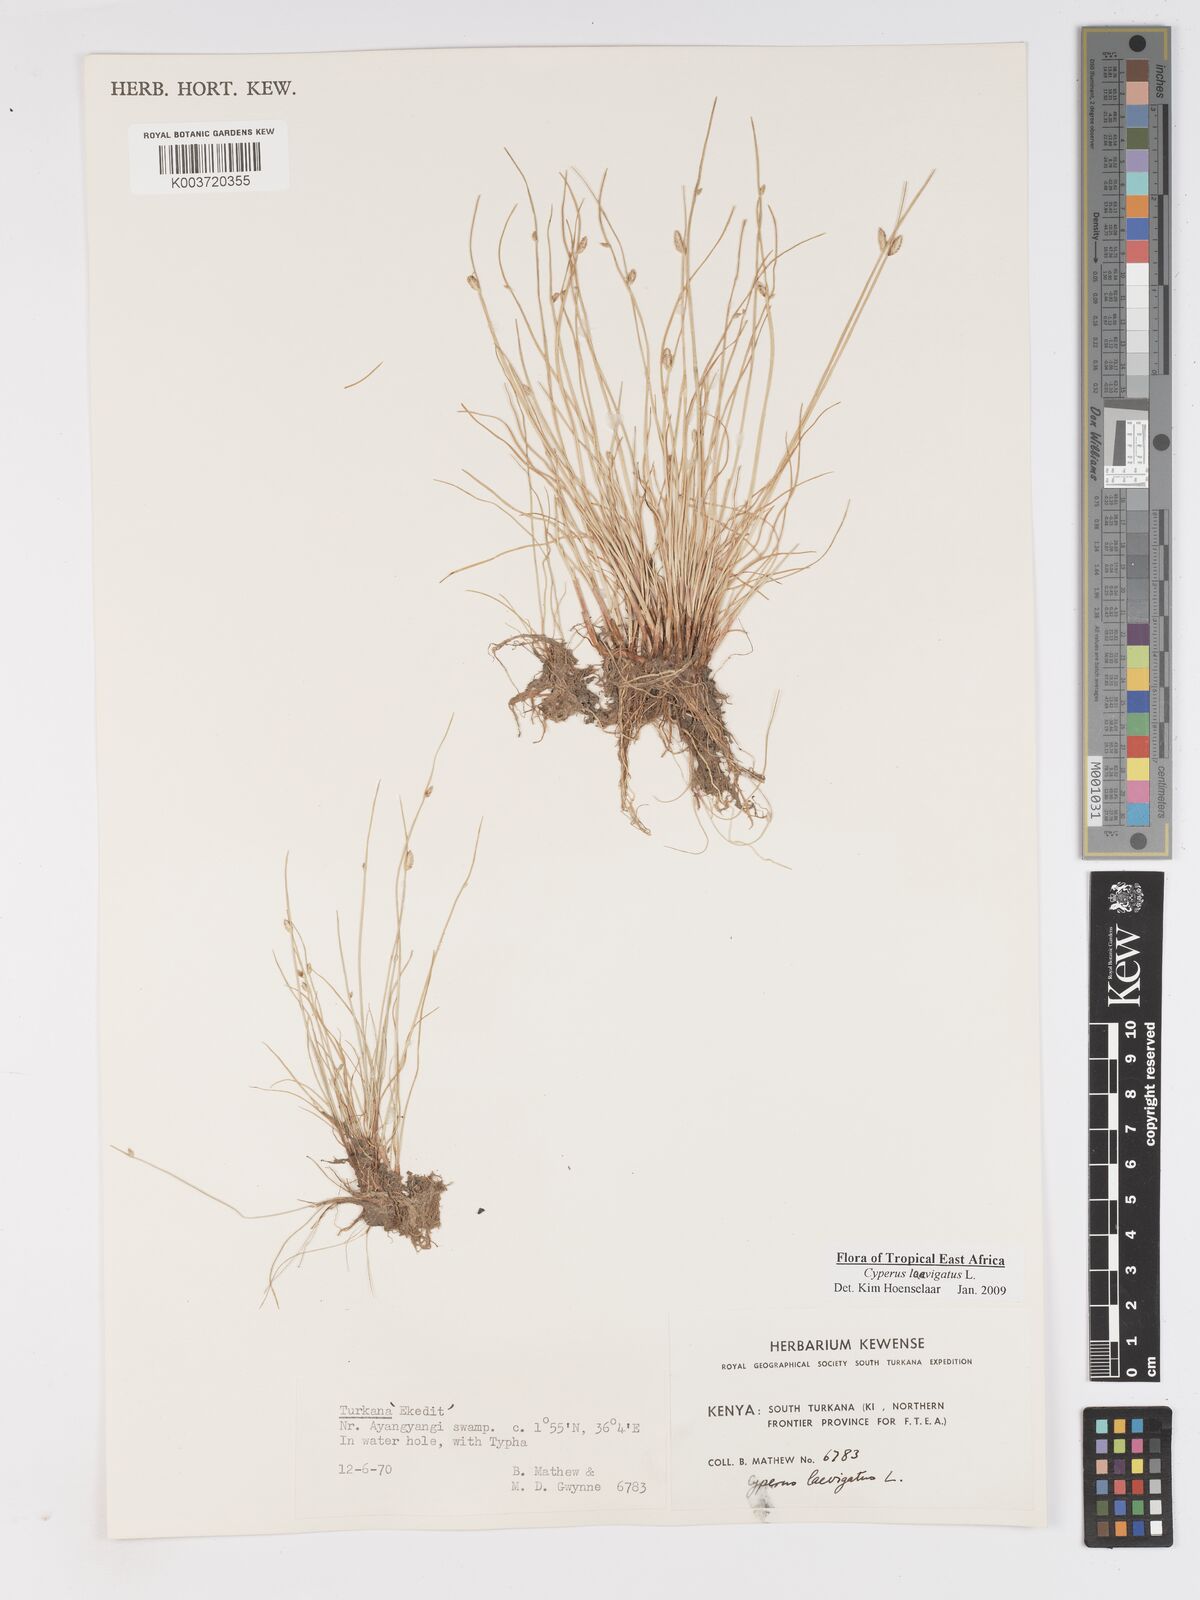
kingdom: Plantae
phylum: Tracheophyta
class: Liliopsida
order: Poales
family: Cyperaceae
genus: Cyperus
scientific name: Cyperus laevigatus
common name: Smooth flat sedge
